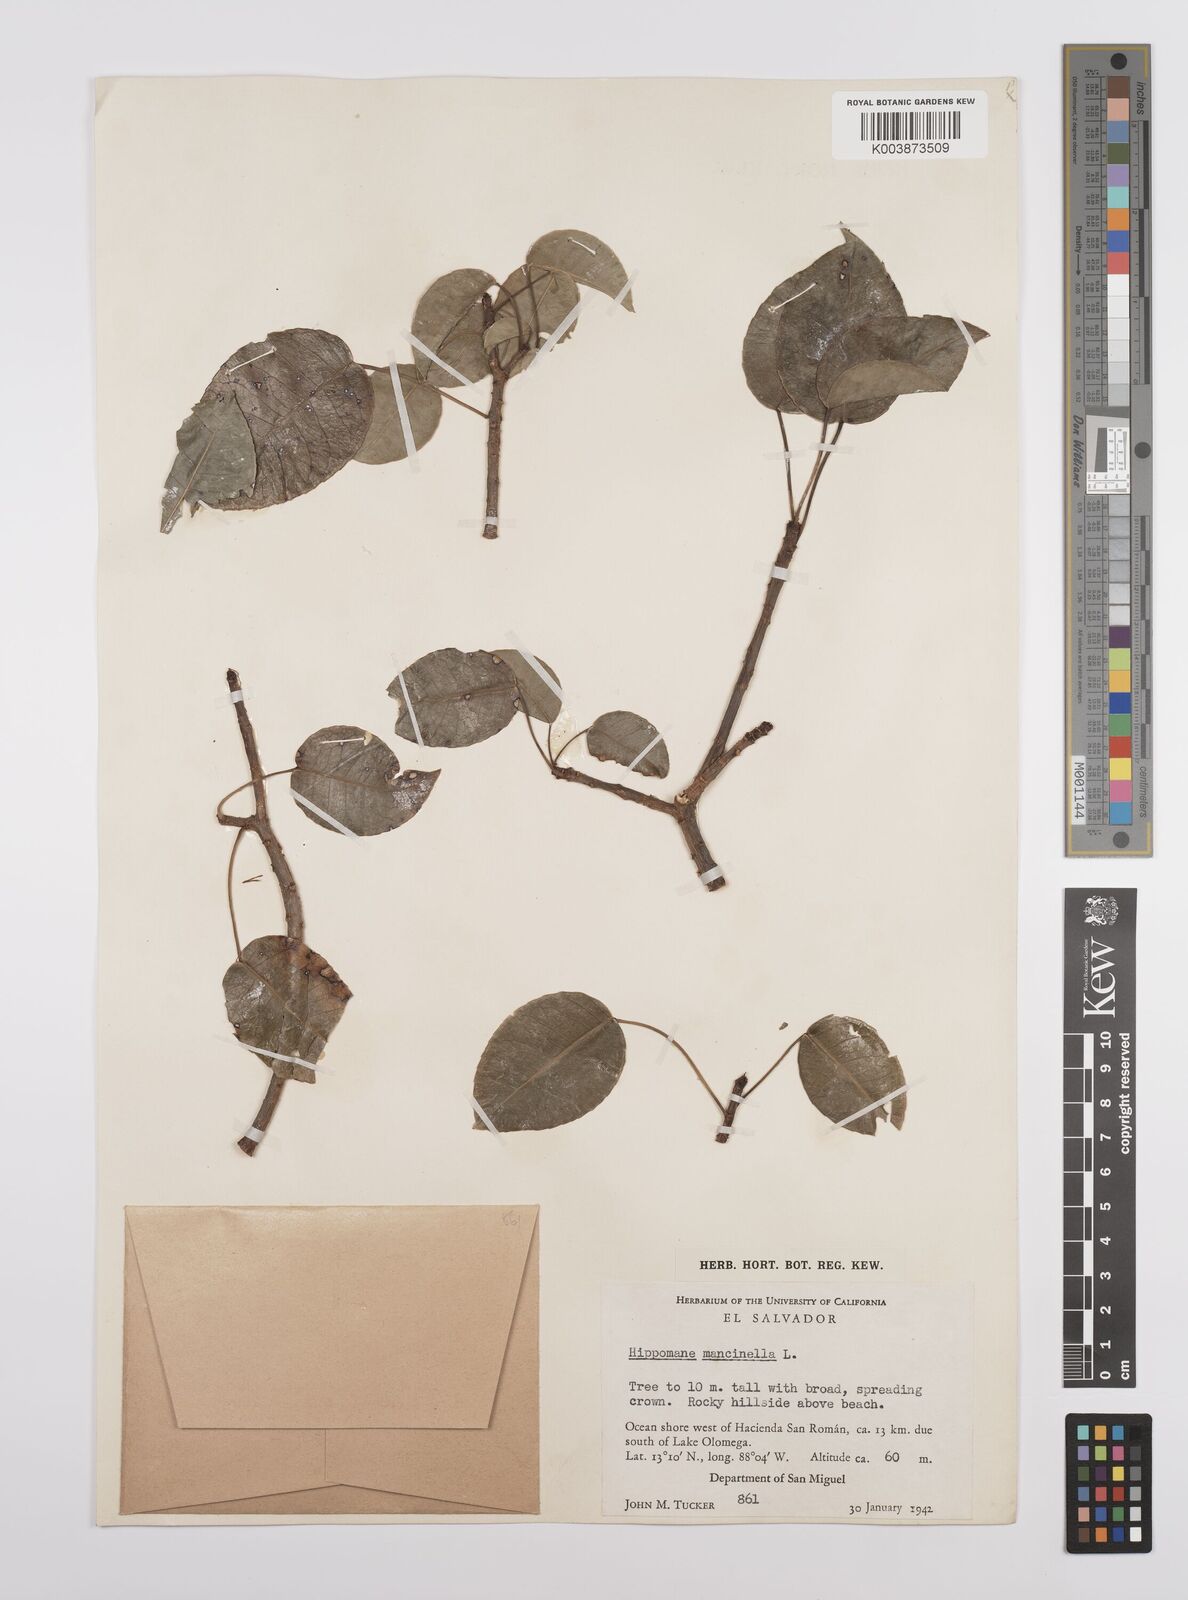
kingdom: Plantae
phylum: Tracheophyta
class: Magnoliopsida
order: Malpighiales
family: Euphorbiaceae
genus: Hippomane
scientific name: Hippomane mancinella
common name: Manchineel
